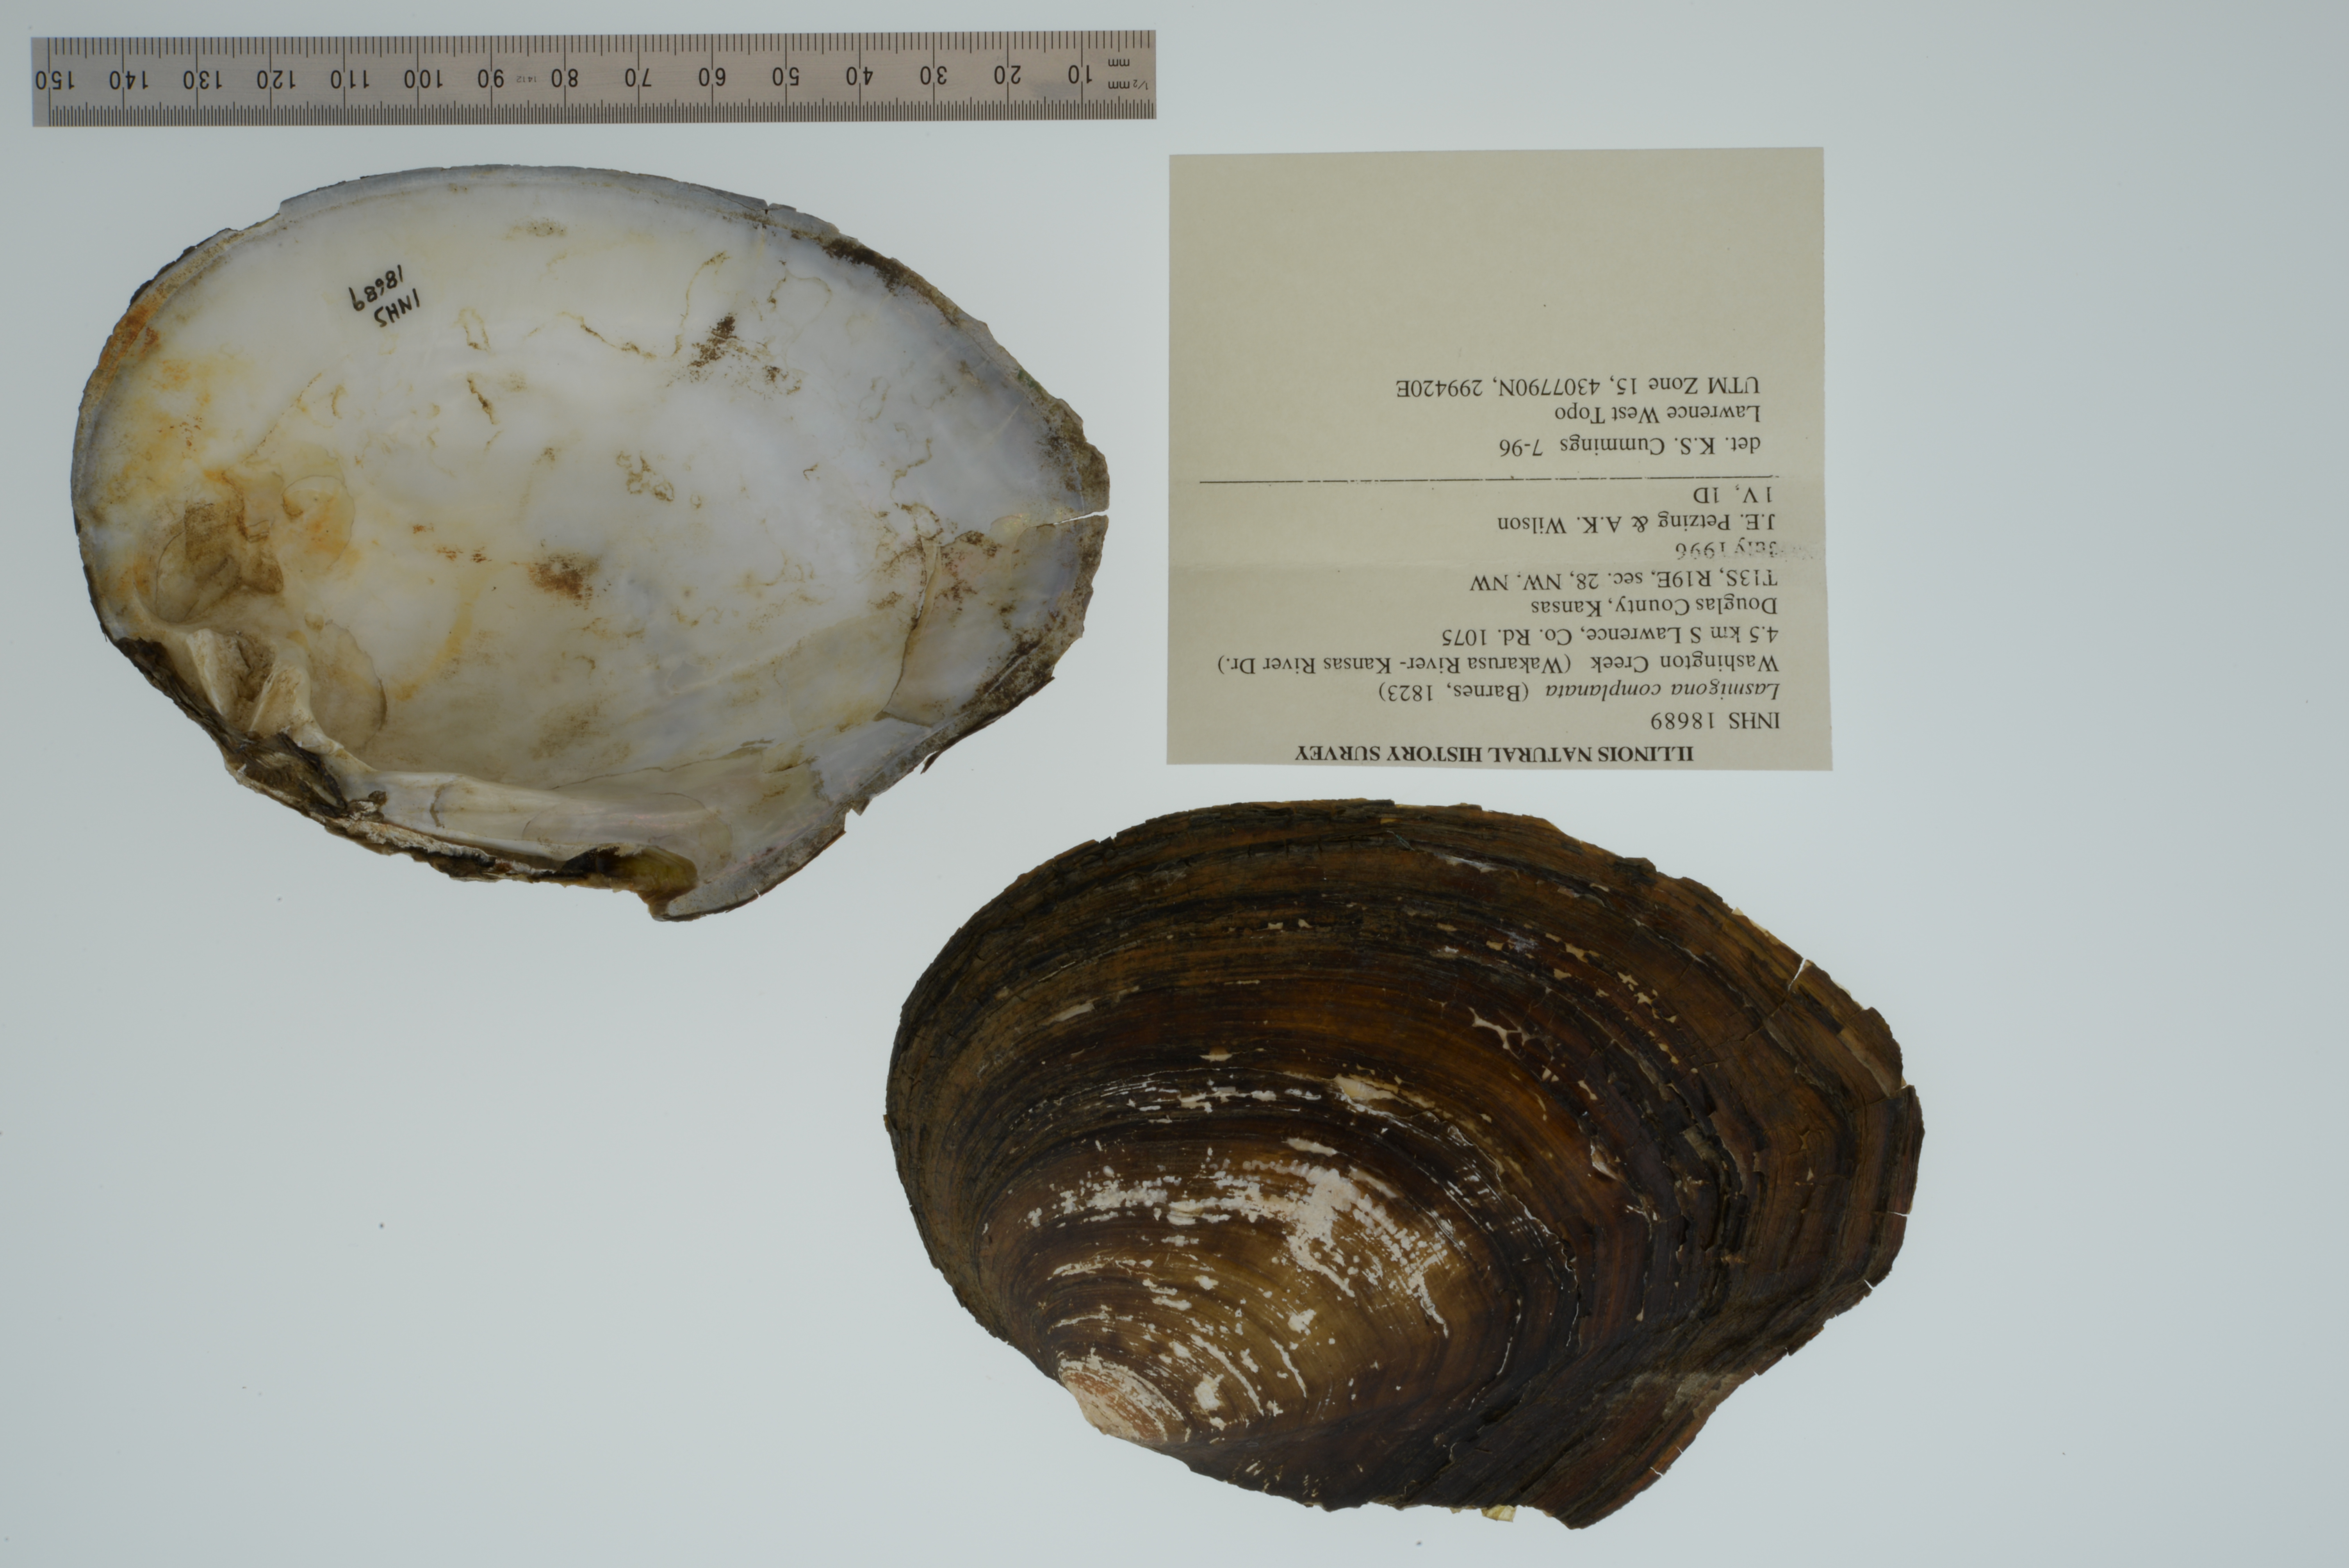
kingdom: Animalia
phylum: Mollusca
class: Bivalvia
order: Unionida
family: Unionidae
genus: Lasmigona
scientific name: Lasmigona complanata
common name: White heelsplitter
